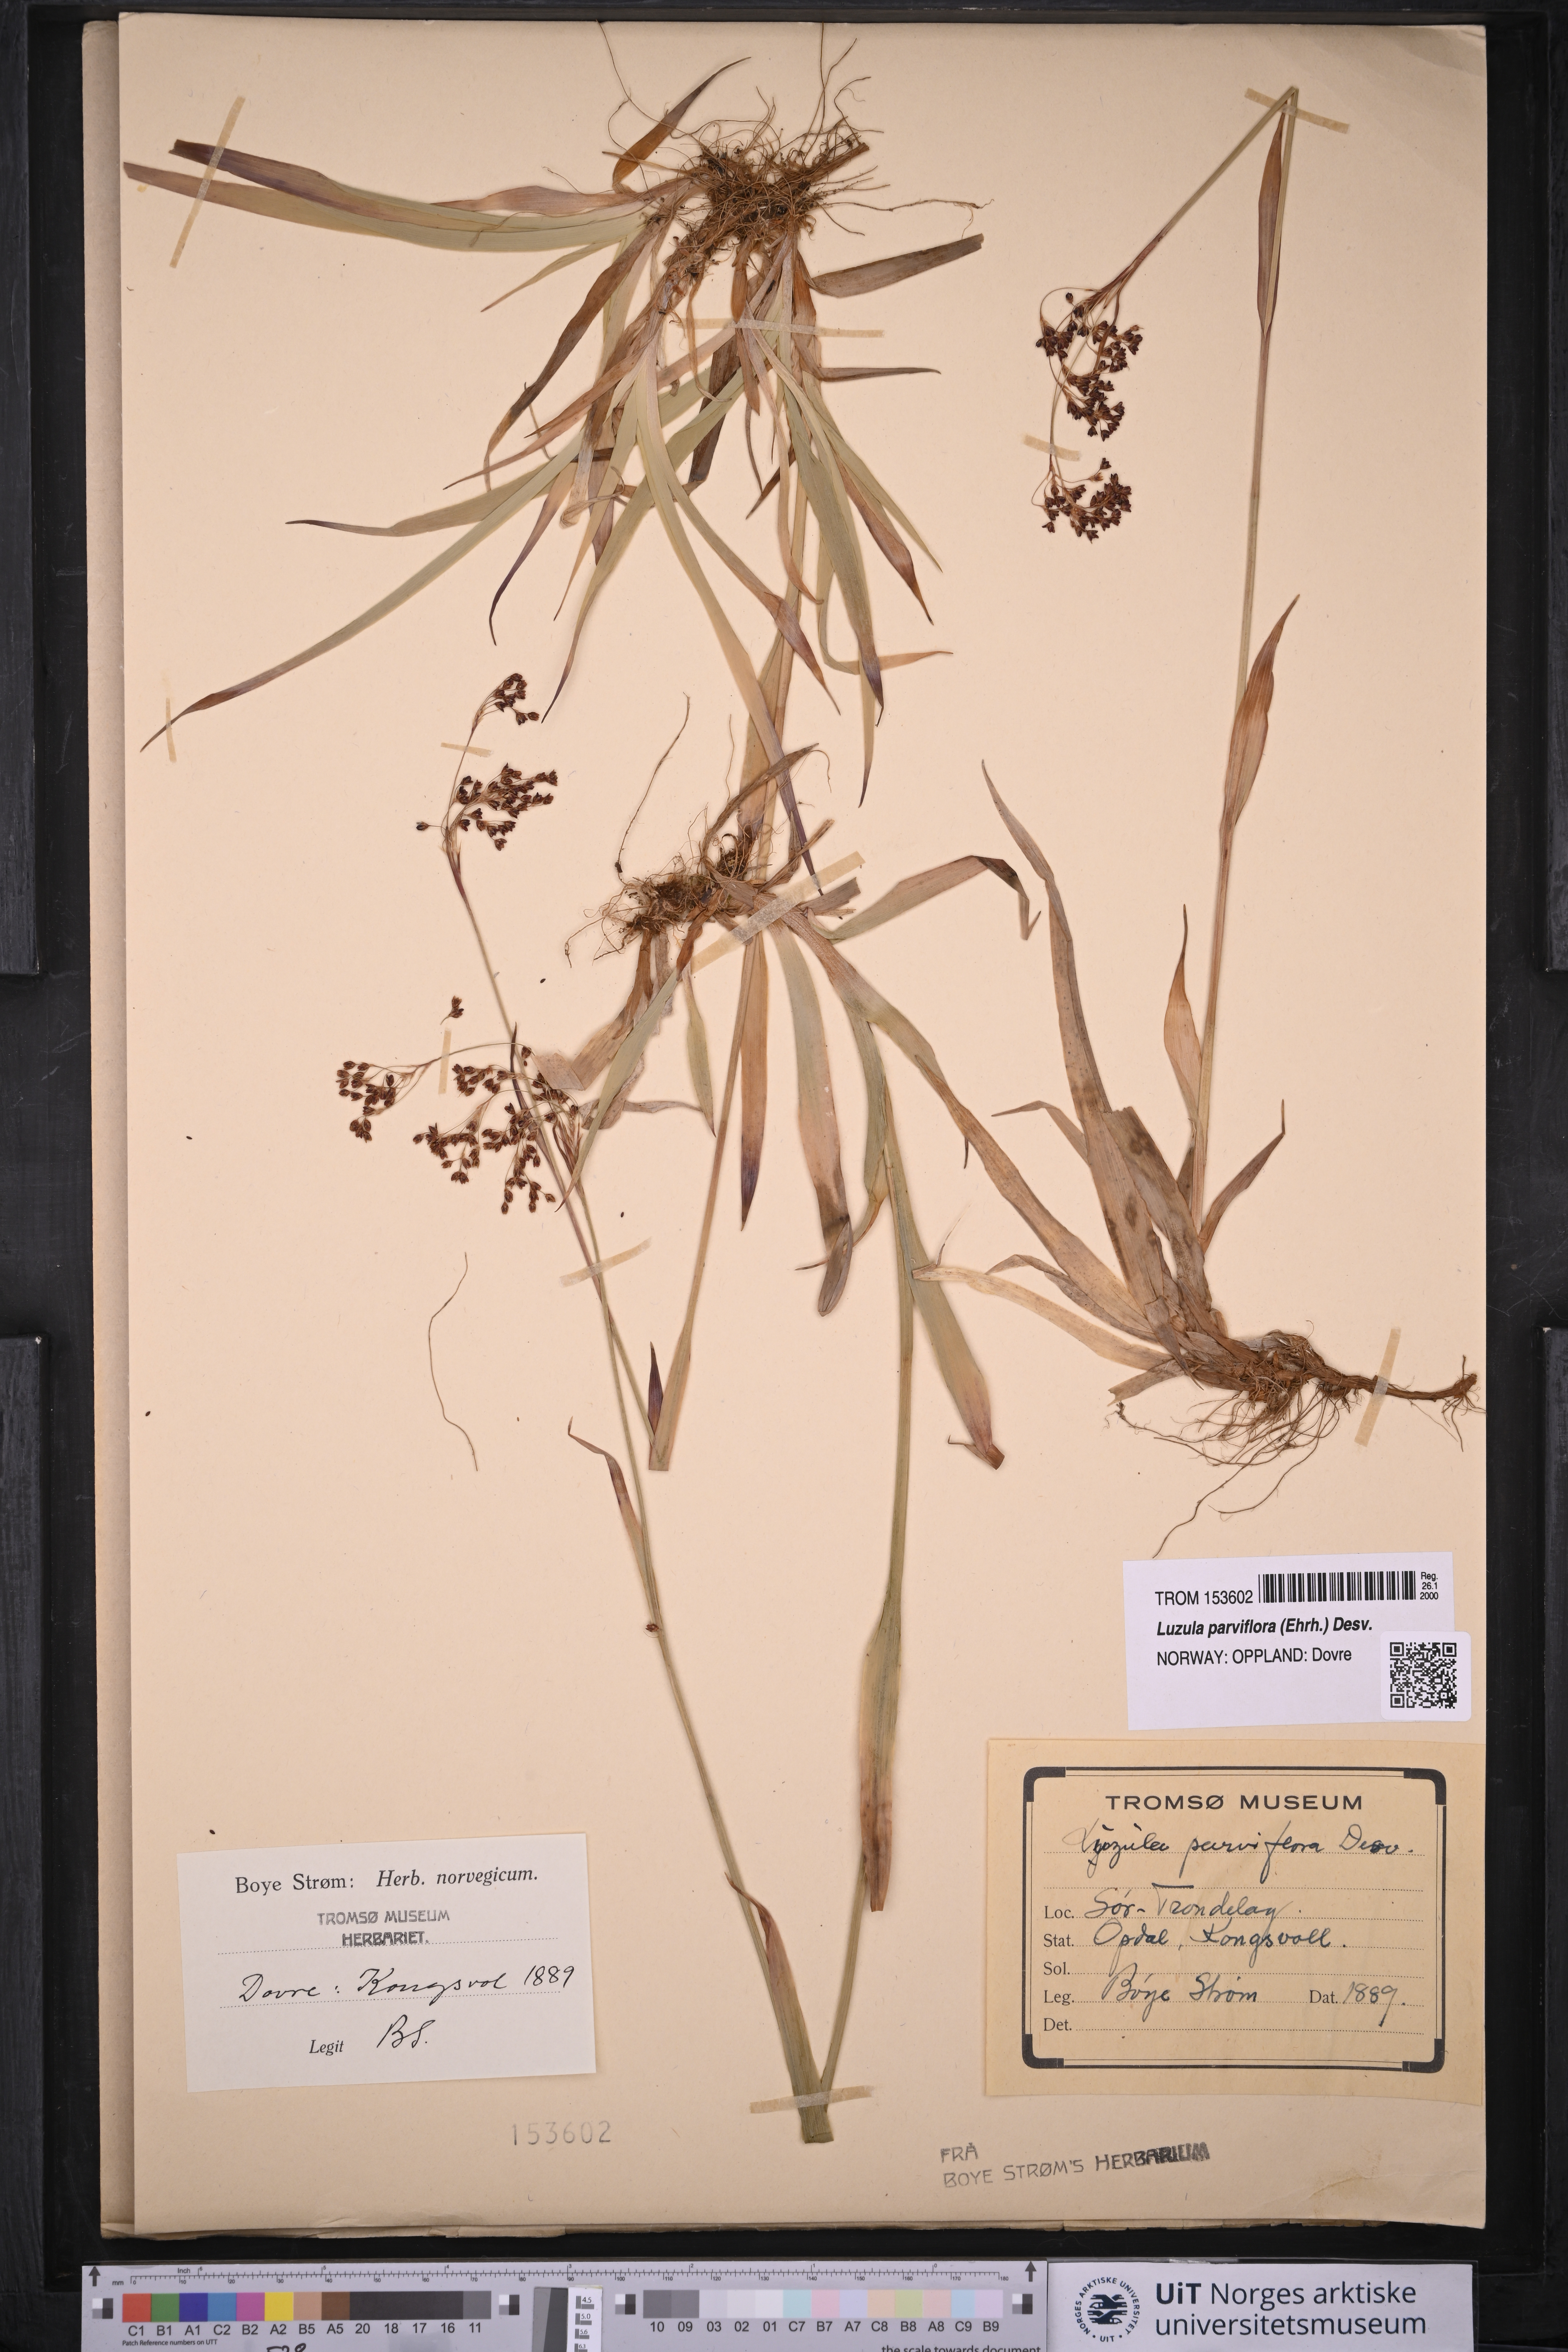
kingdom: Plantae
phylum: Tracheophyta
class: Liliopsida
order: Poales
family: Juncaceae
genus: Luzula
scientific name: Luzula parviflora
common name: Millet woodrush
